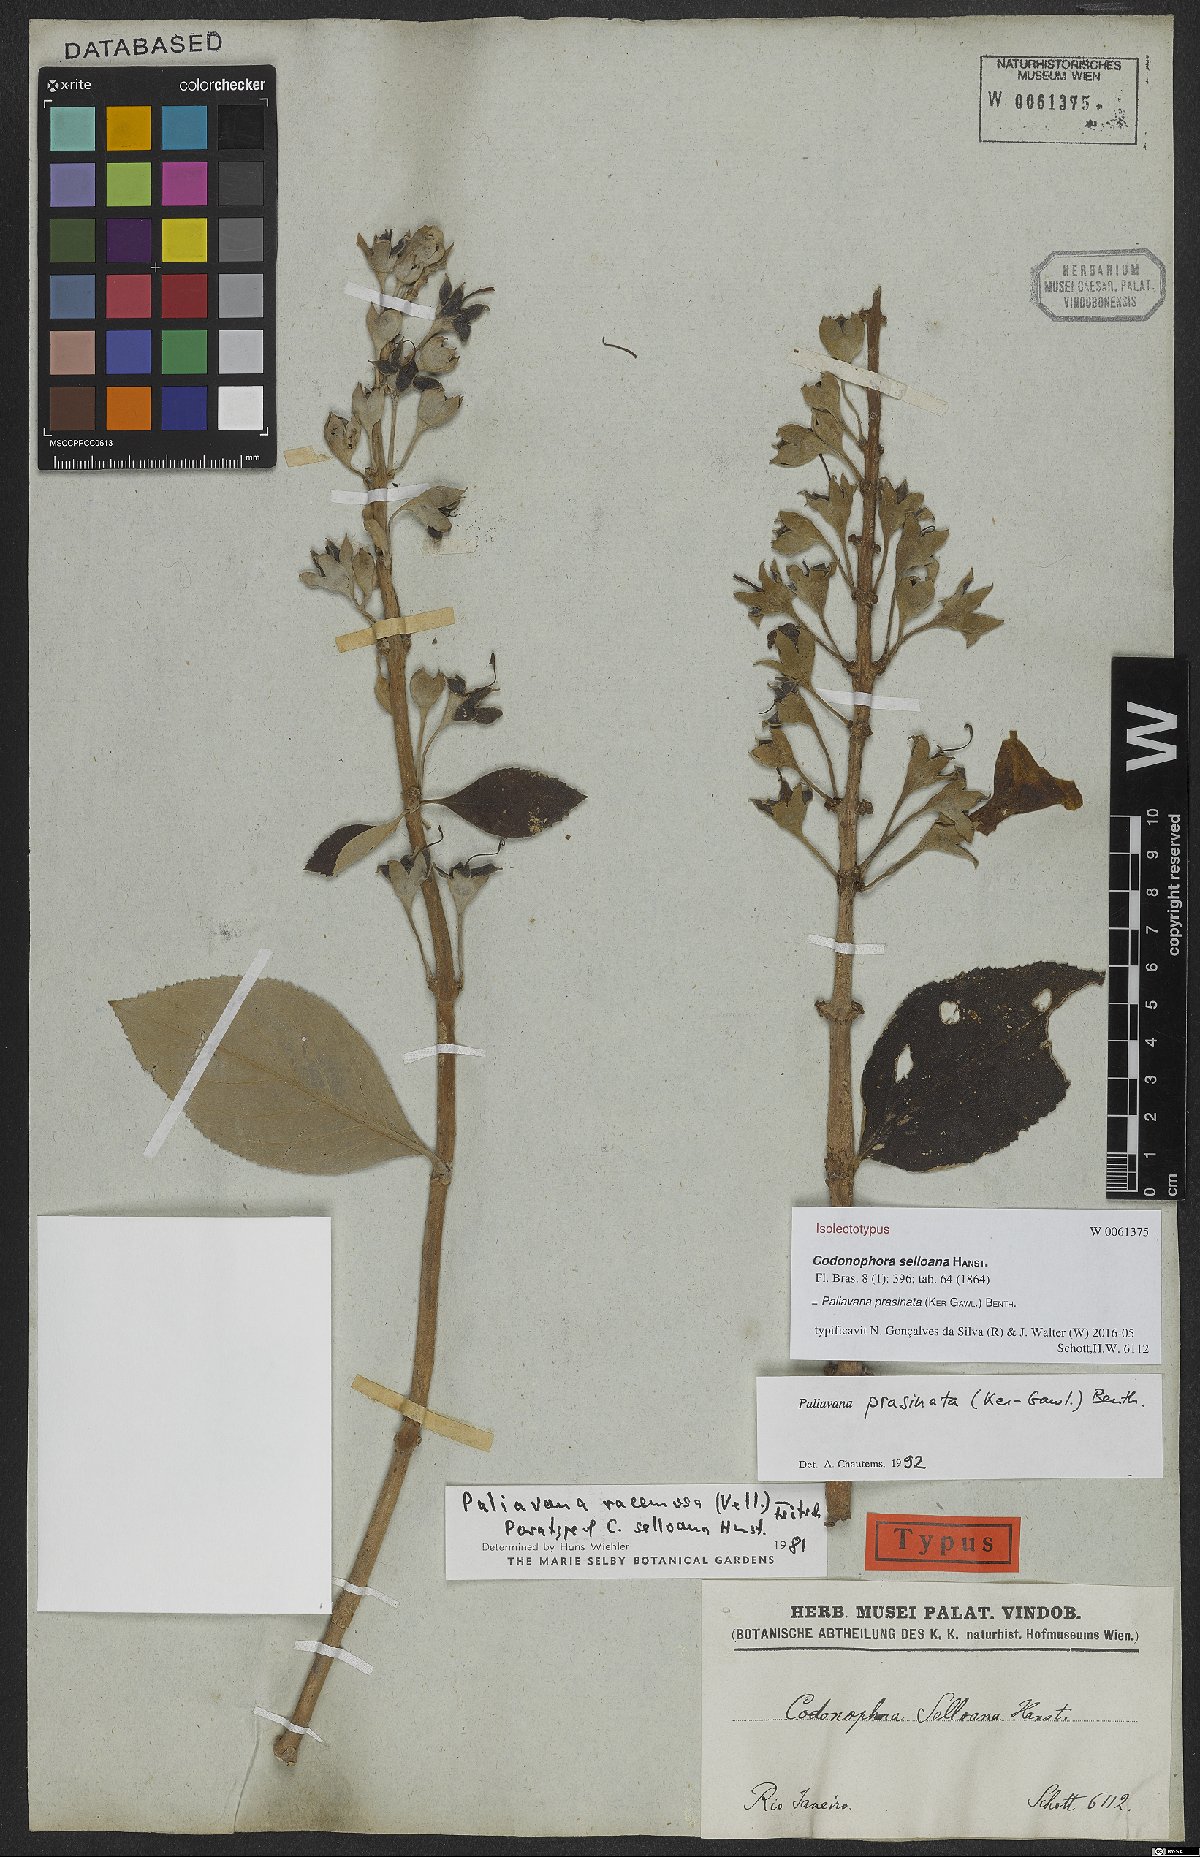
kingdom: Plantae
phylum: Tracheophyta
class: Magnoliopsida
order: Lamiales
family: Gesneriaceae
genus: Paliavana
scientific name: Paliavana prasinata
